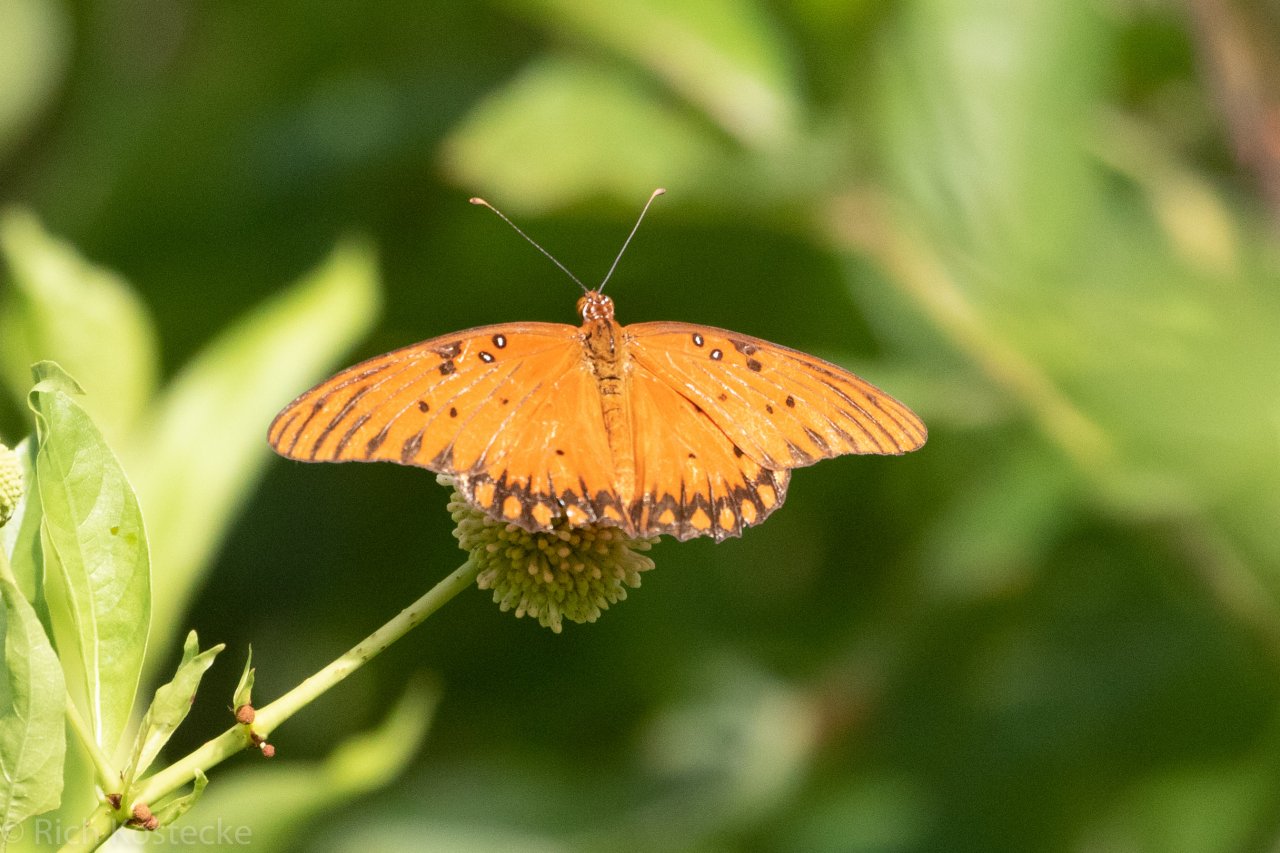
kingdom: Animalia
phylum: Arthropoda
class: Insecta
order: Lepidoptera
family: Nymphalidae
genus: Dione
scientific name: Dione vanillae
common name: Gulf Fritillary
